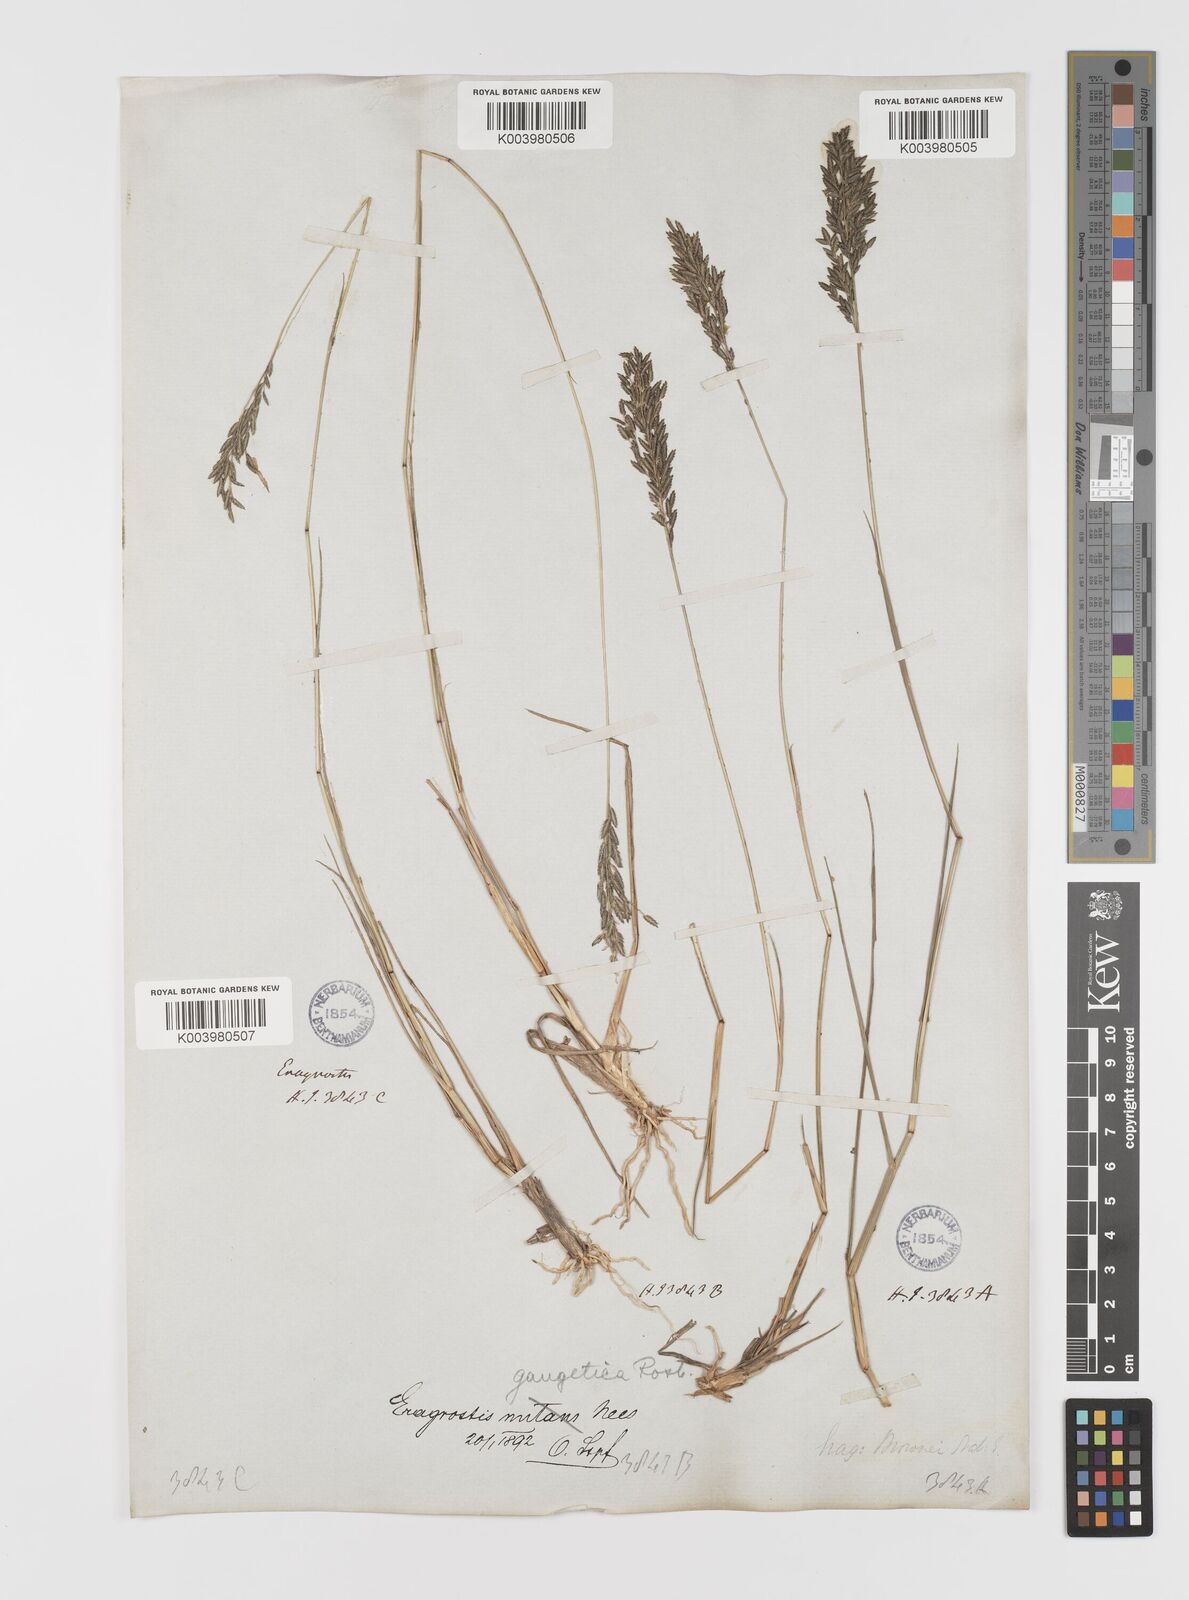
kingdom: Plantae
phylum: Tracheophyta
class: Liliopsida
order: Poales
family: Poaceae
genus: Eragrostis
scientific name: Eragrostis
